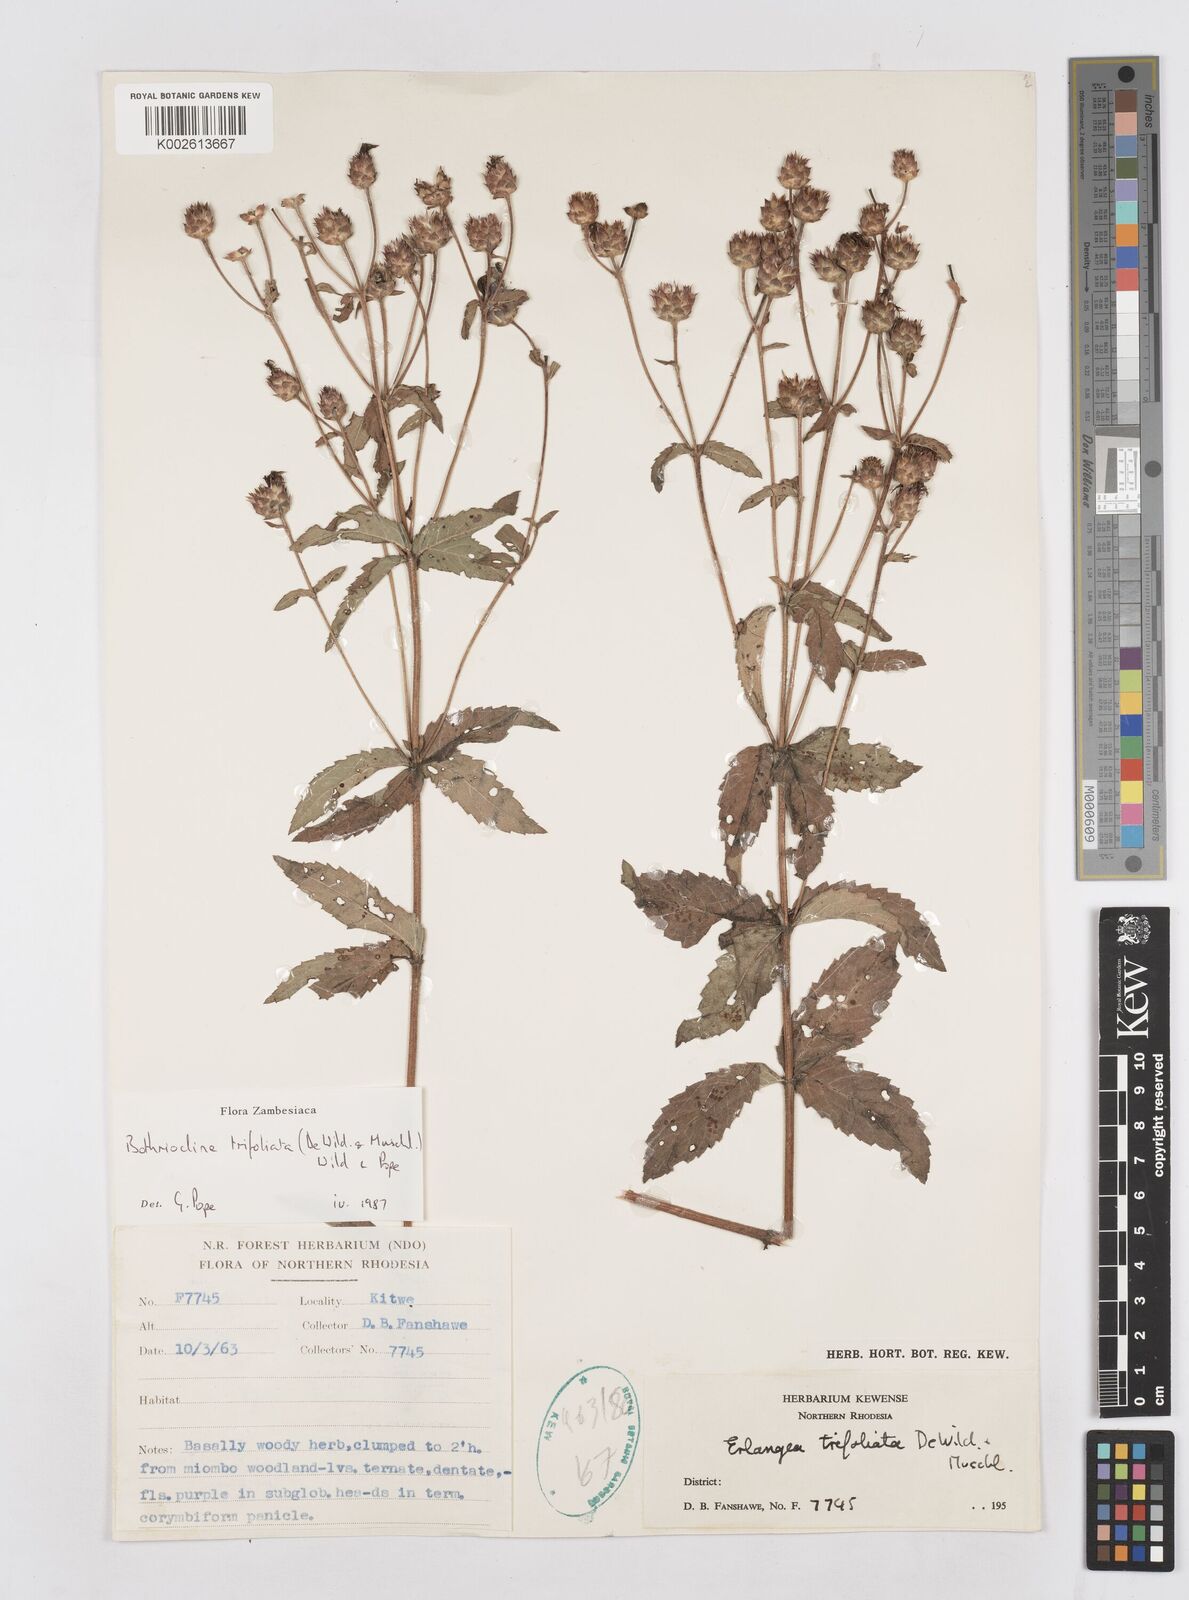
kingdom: Plantae
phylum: Tracheophyta
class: Magnoliopsida
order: Asterales
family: Asteraceae
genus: Bothriocline
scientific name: Bothriocline trifoliata
